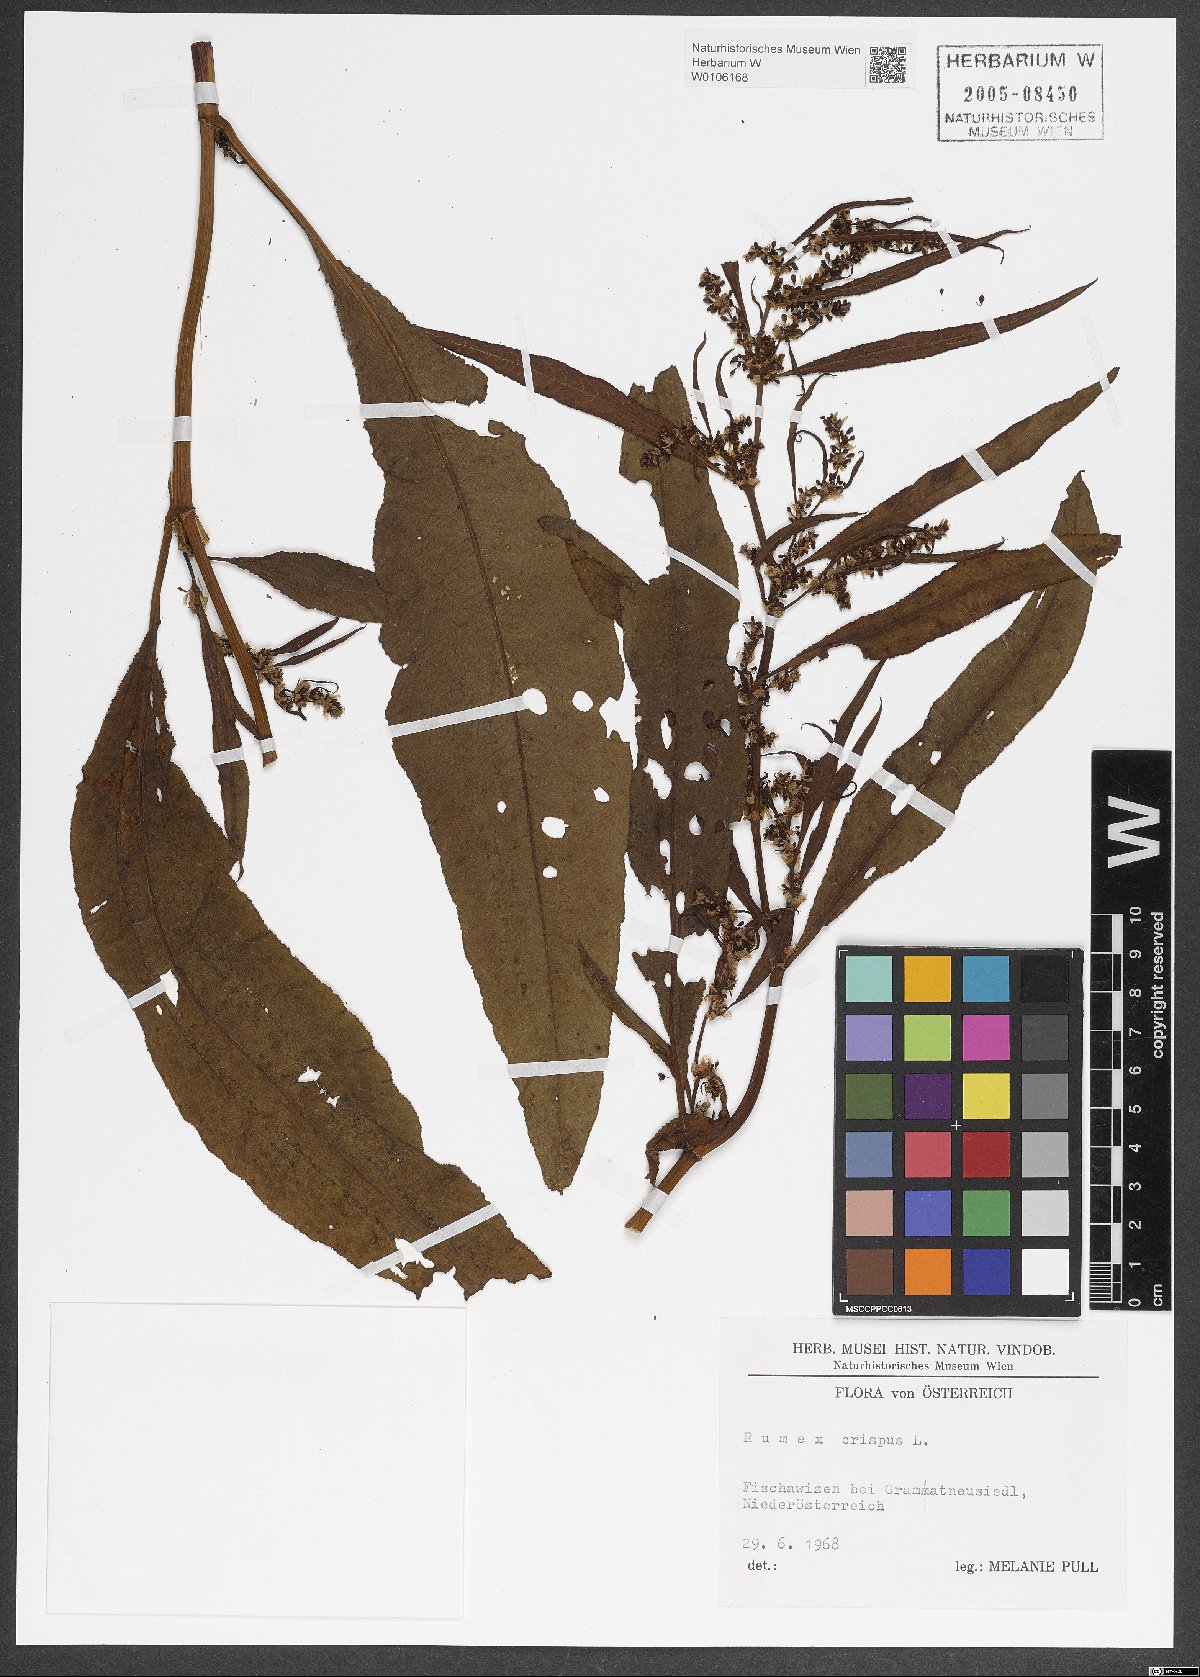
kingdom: Plantae
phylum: Tracheophyta
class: Magnoliopsida
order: Caryophyllales
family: Polygonaceae
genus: Rumex
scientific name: Rumex crispus
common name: Curled dock
